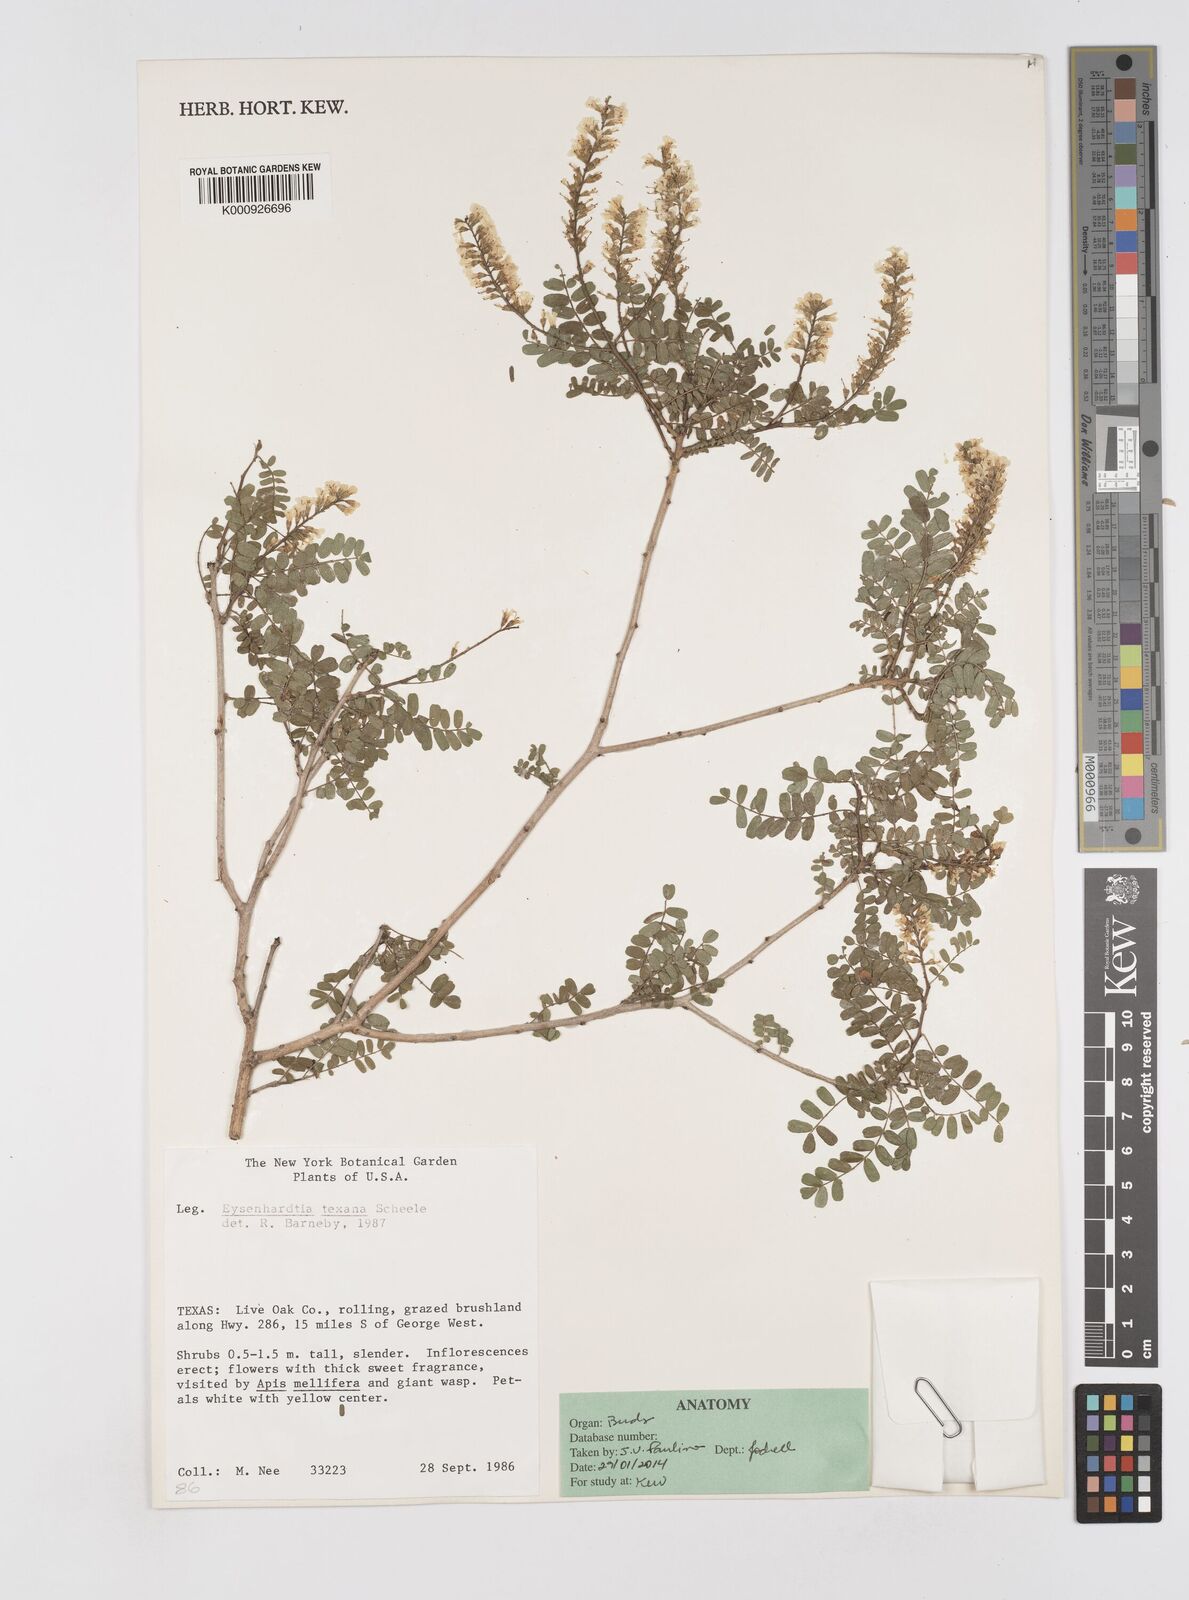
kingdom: Plantae
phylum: Tracheophyta
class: Magnoliopsida
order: Fabales
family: Fabaceae
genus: Eysenhardtia
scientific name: Eysenhardtia texana
